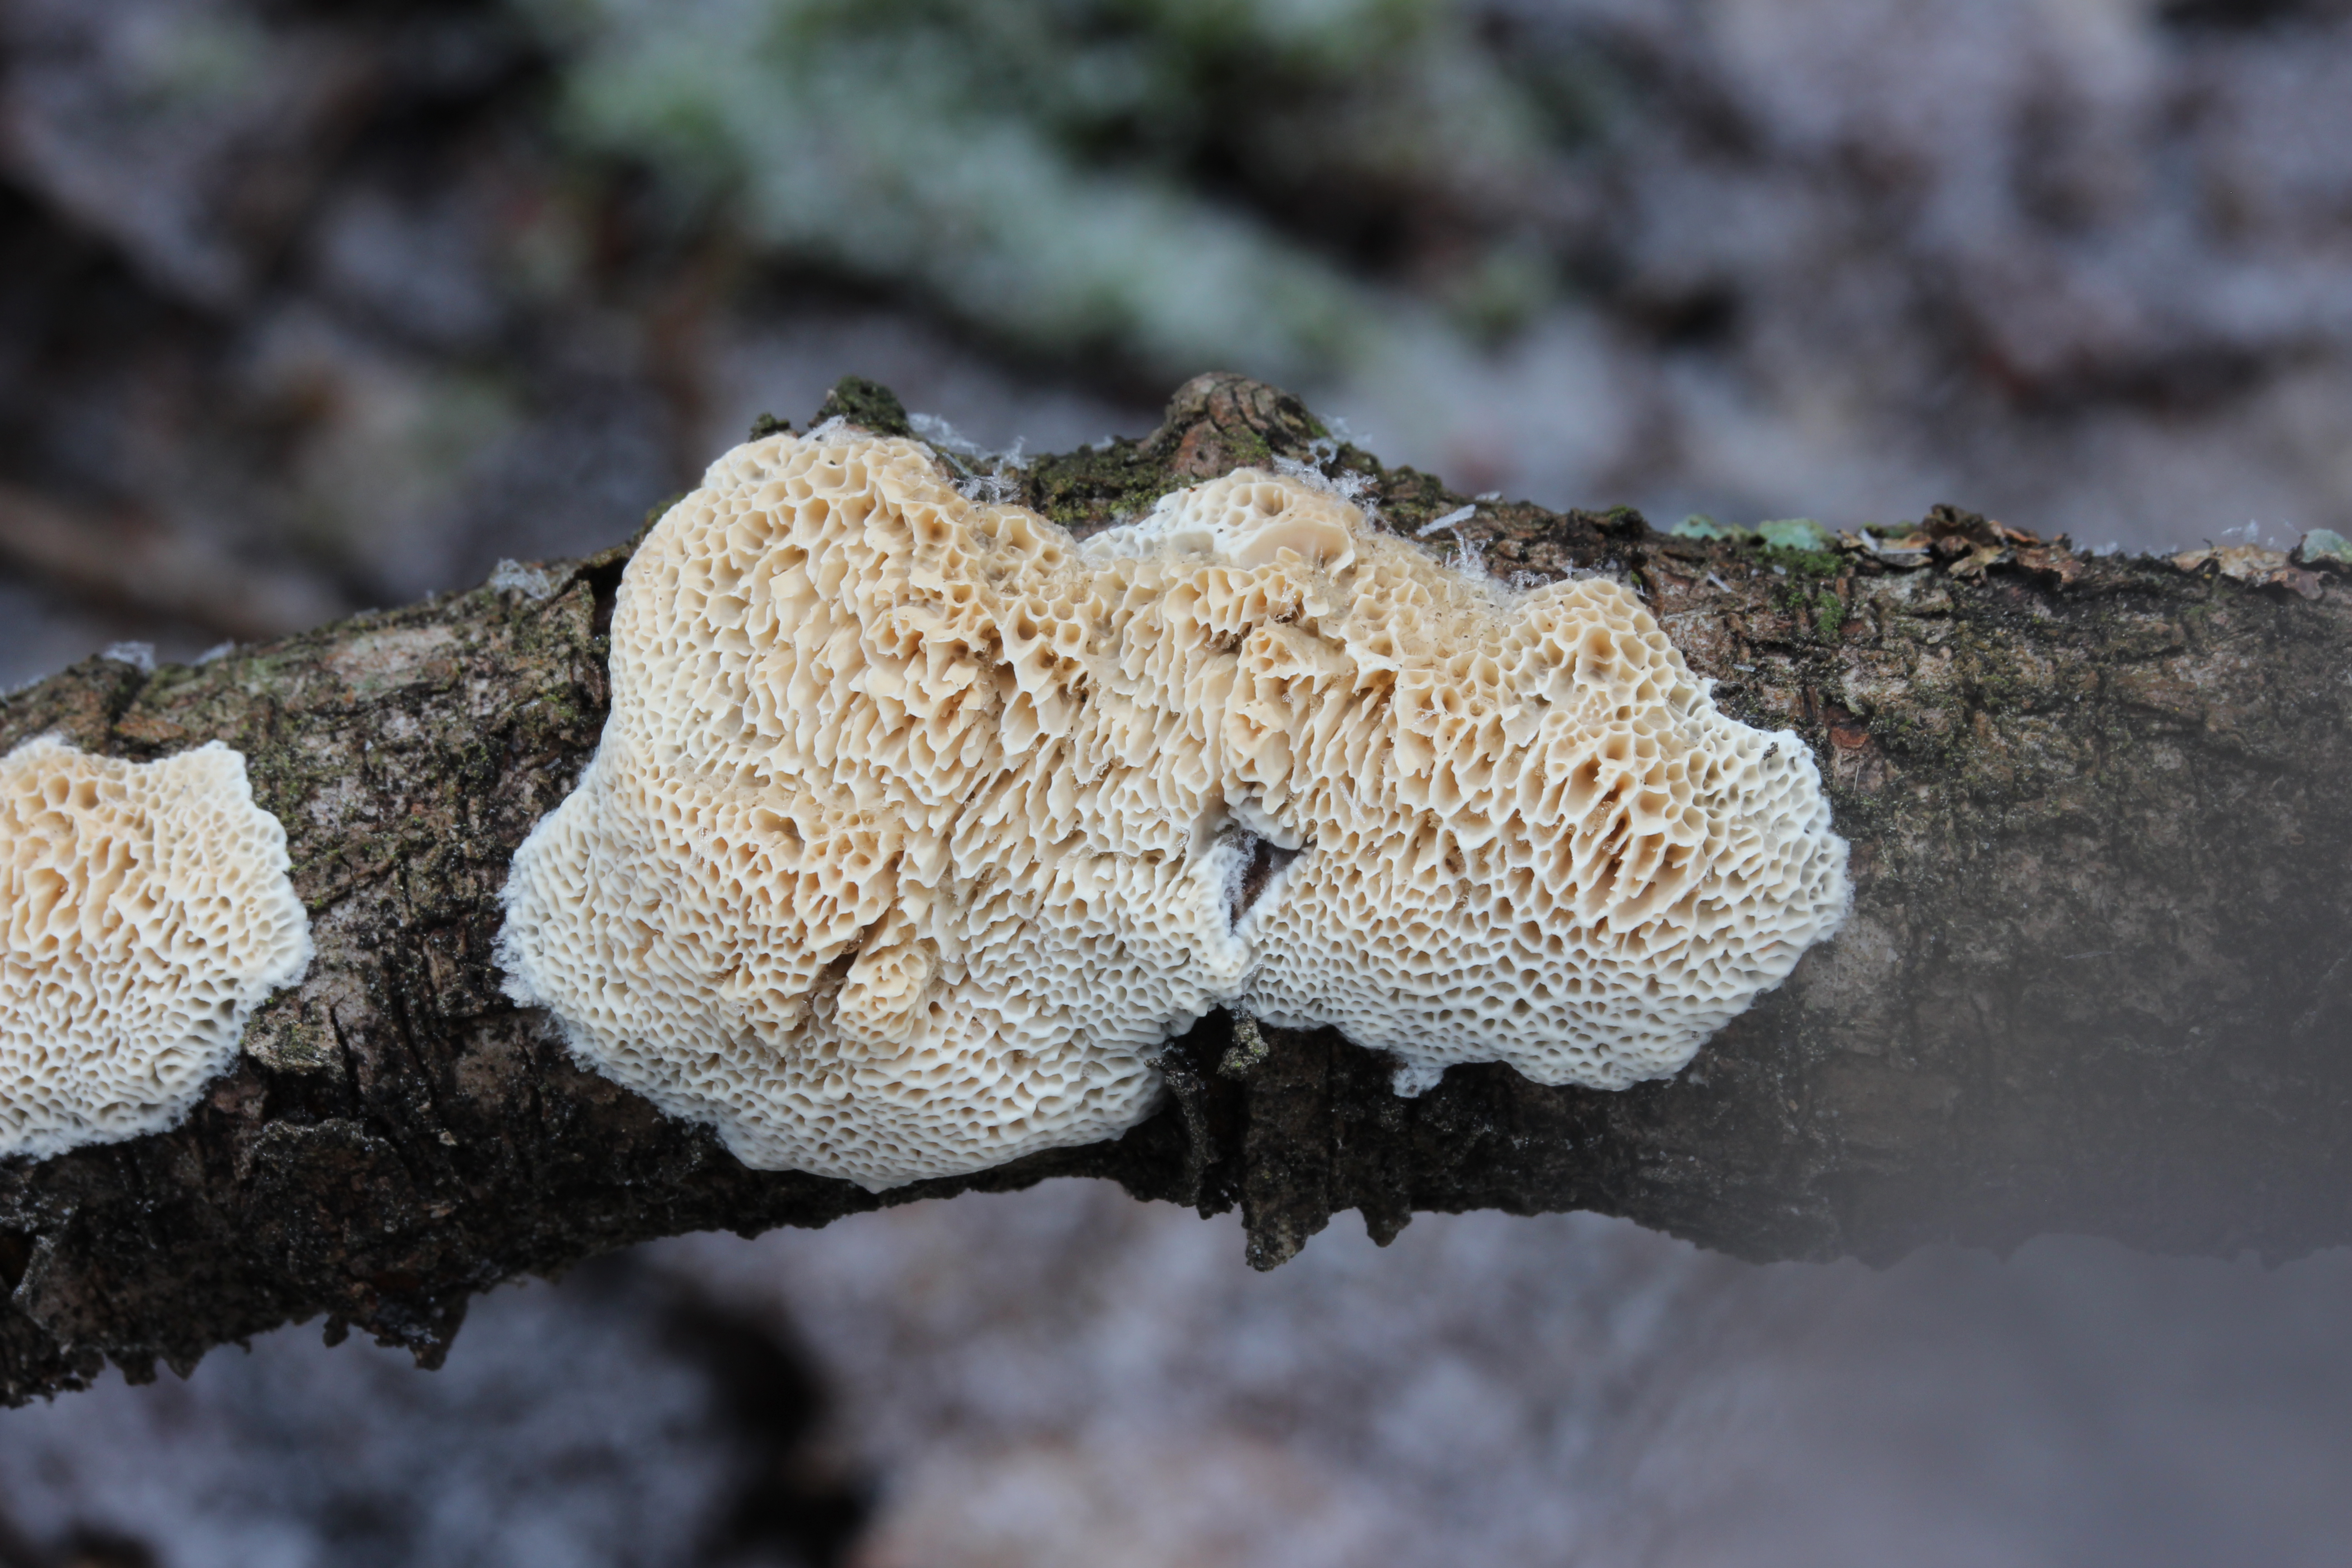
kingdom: Fungi
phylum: Basidiomycota
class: Agaricomycetes
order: Polyporales
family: Cerrenaceae
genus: Raduliporus
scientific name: Raduliporus aneirinus
